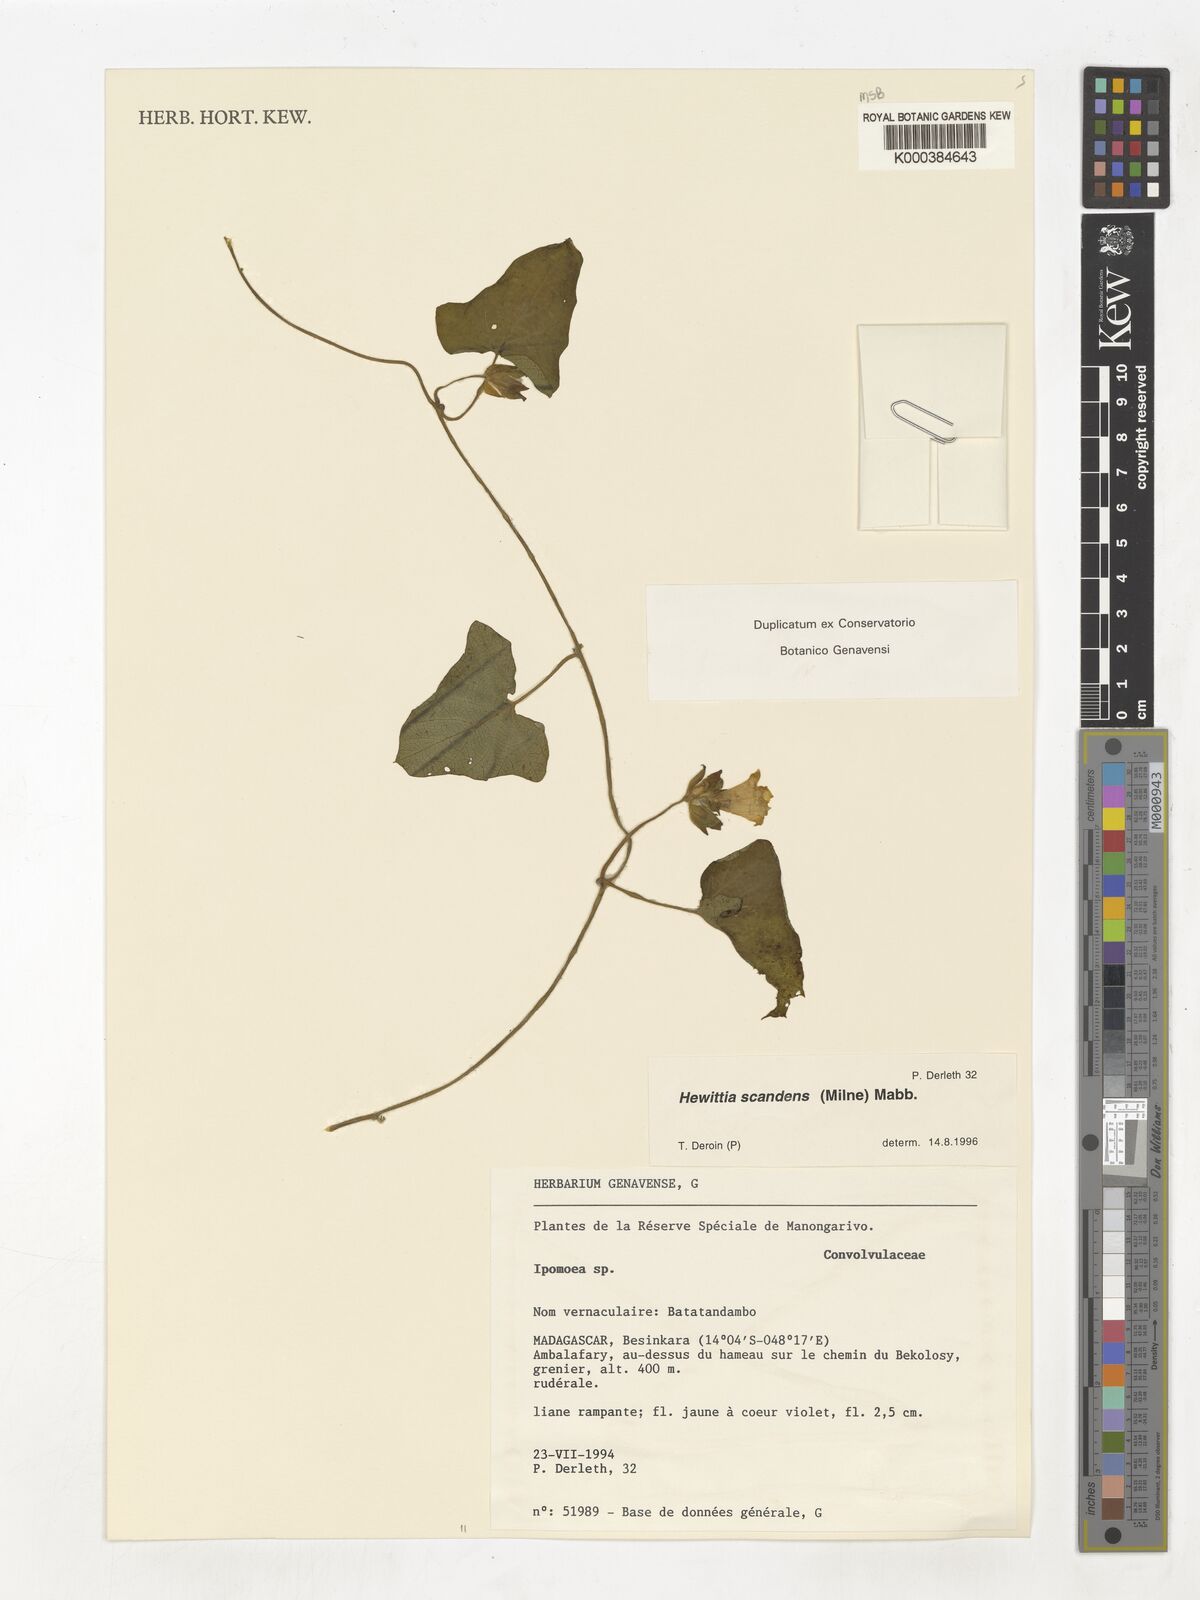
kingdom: Plantae
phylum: Tracheophyta
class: Magnoliopsida
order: Solanales
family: Convolvulaceae
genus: Hewittia
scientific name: Hewittia
